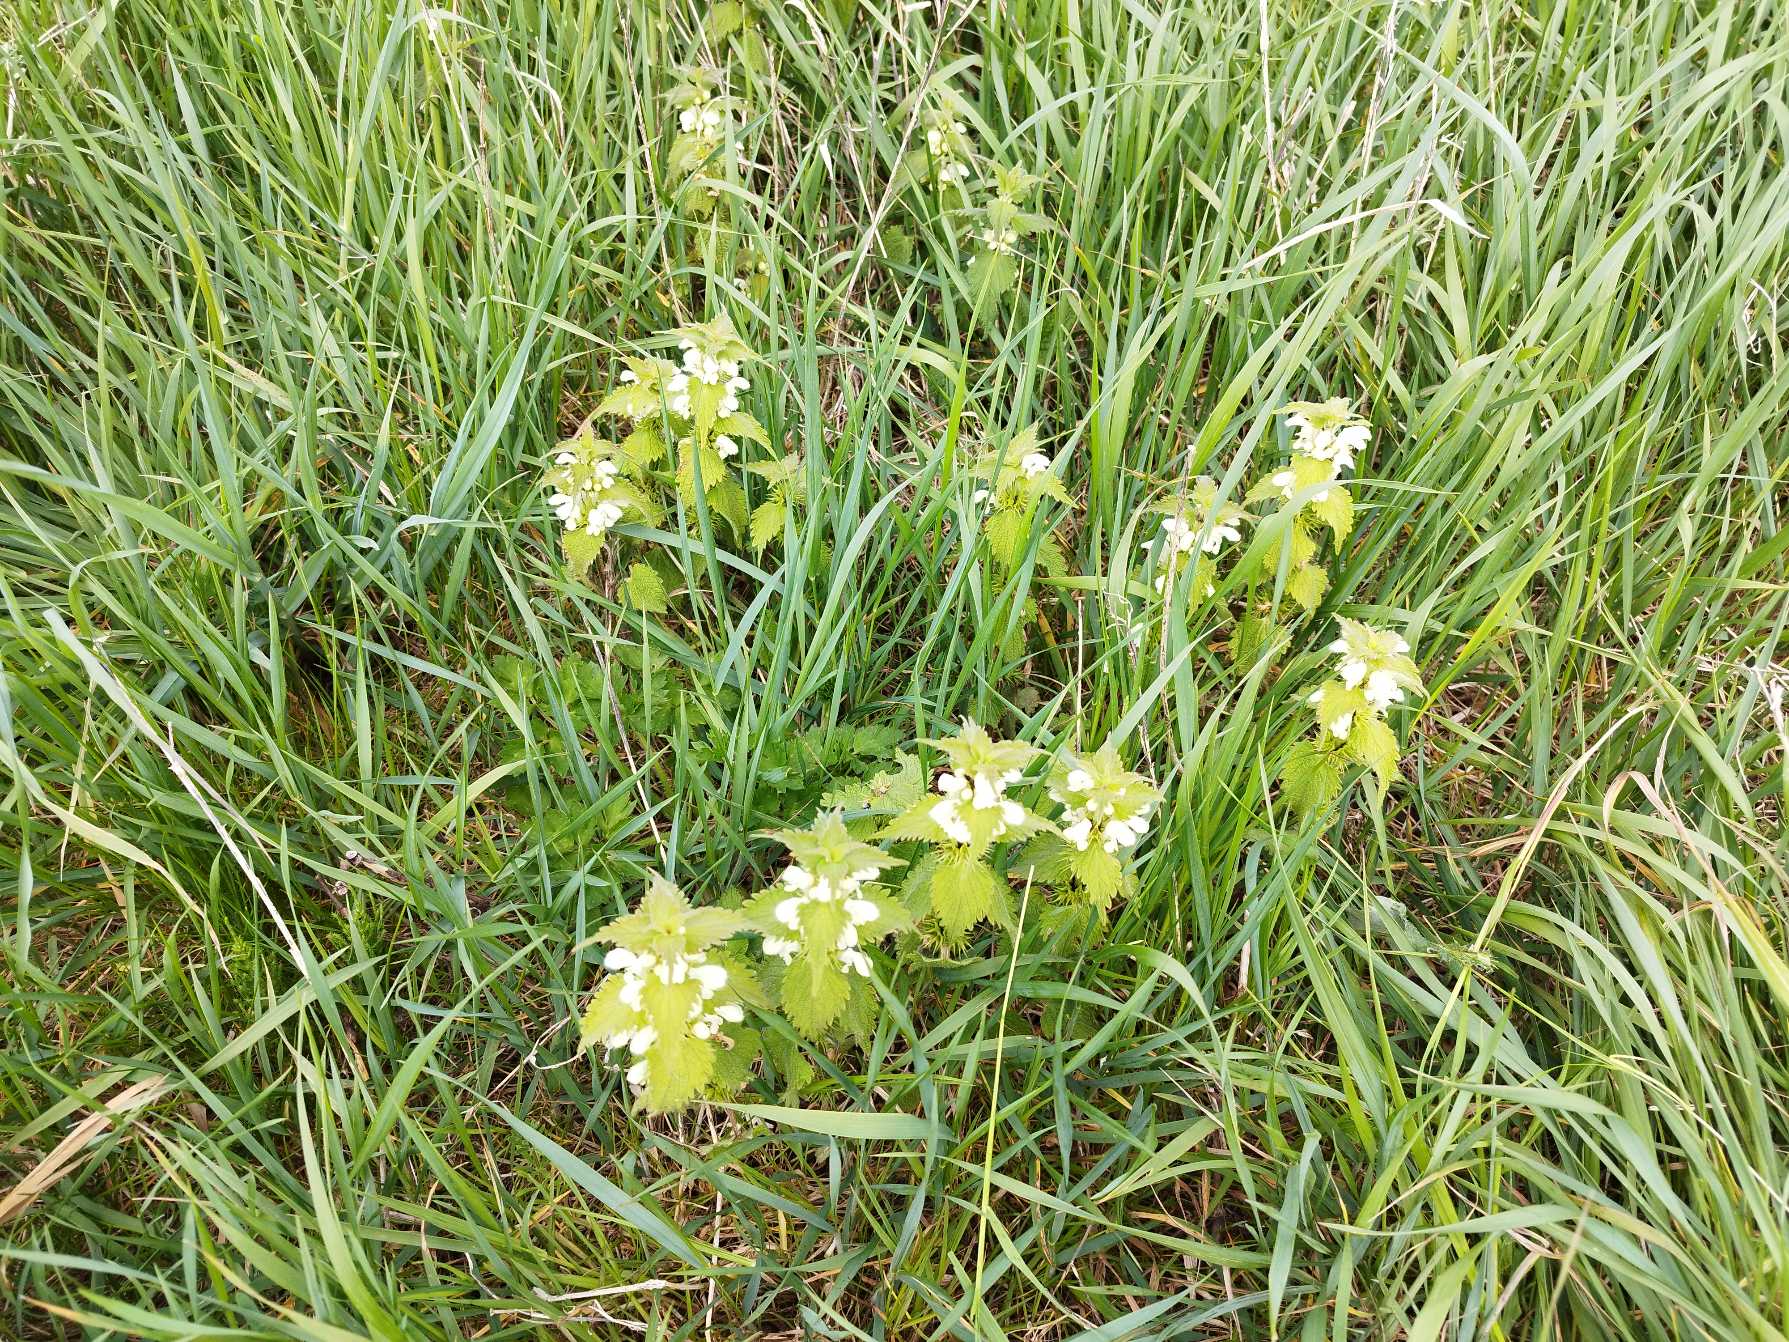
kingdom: Plantae
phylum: Tracheophyta
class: Magnoliopsida
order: Lamiales
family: Lamiaceae
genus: Lamium
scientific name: Lamium album
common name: Døvnælde
